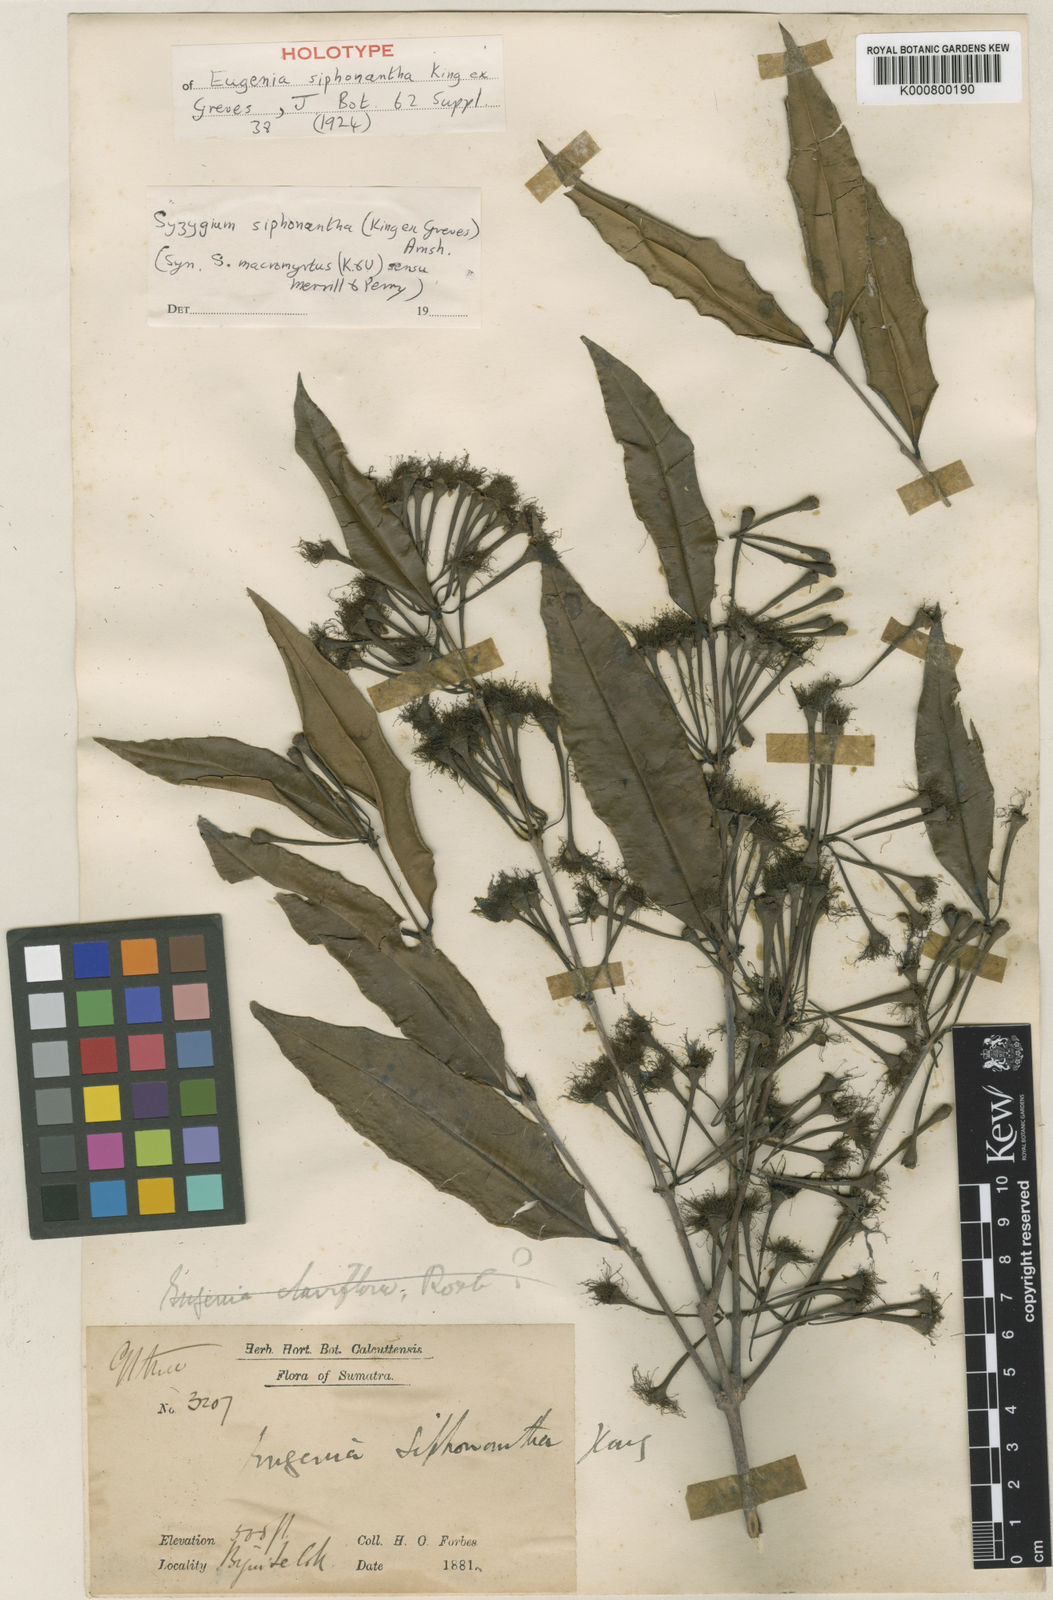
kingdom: Plantae
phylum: Tracheophyta
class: Magnoliopsida
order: Myrtales
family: Myrtaceae
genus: Syzygium
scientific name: Syzygium macromyrtus
